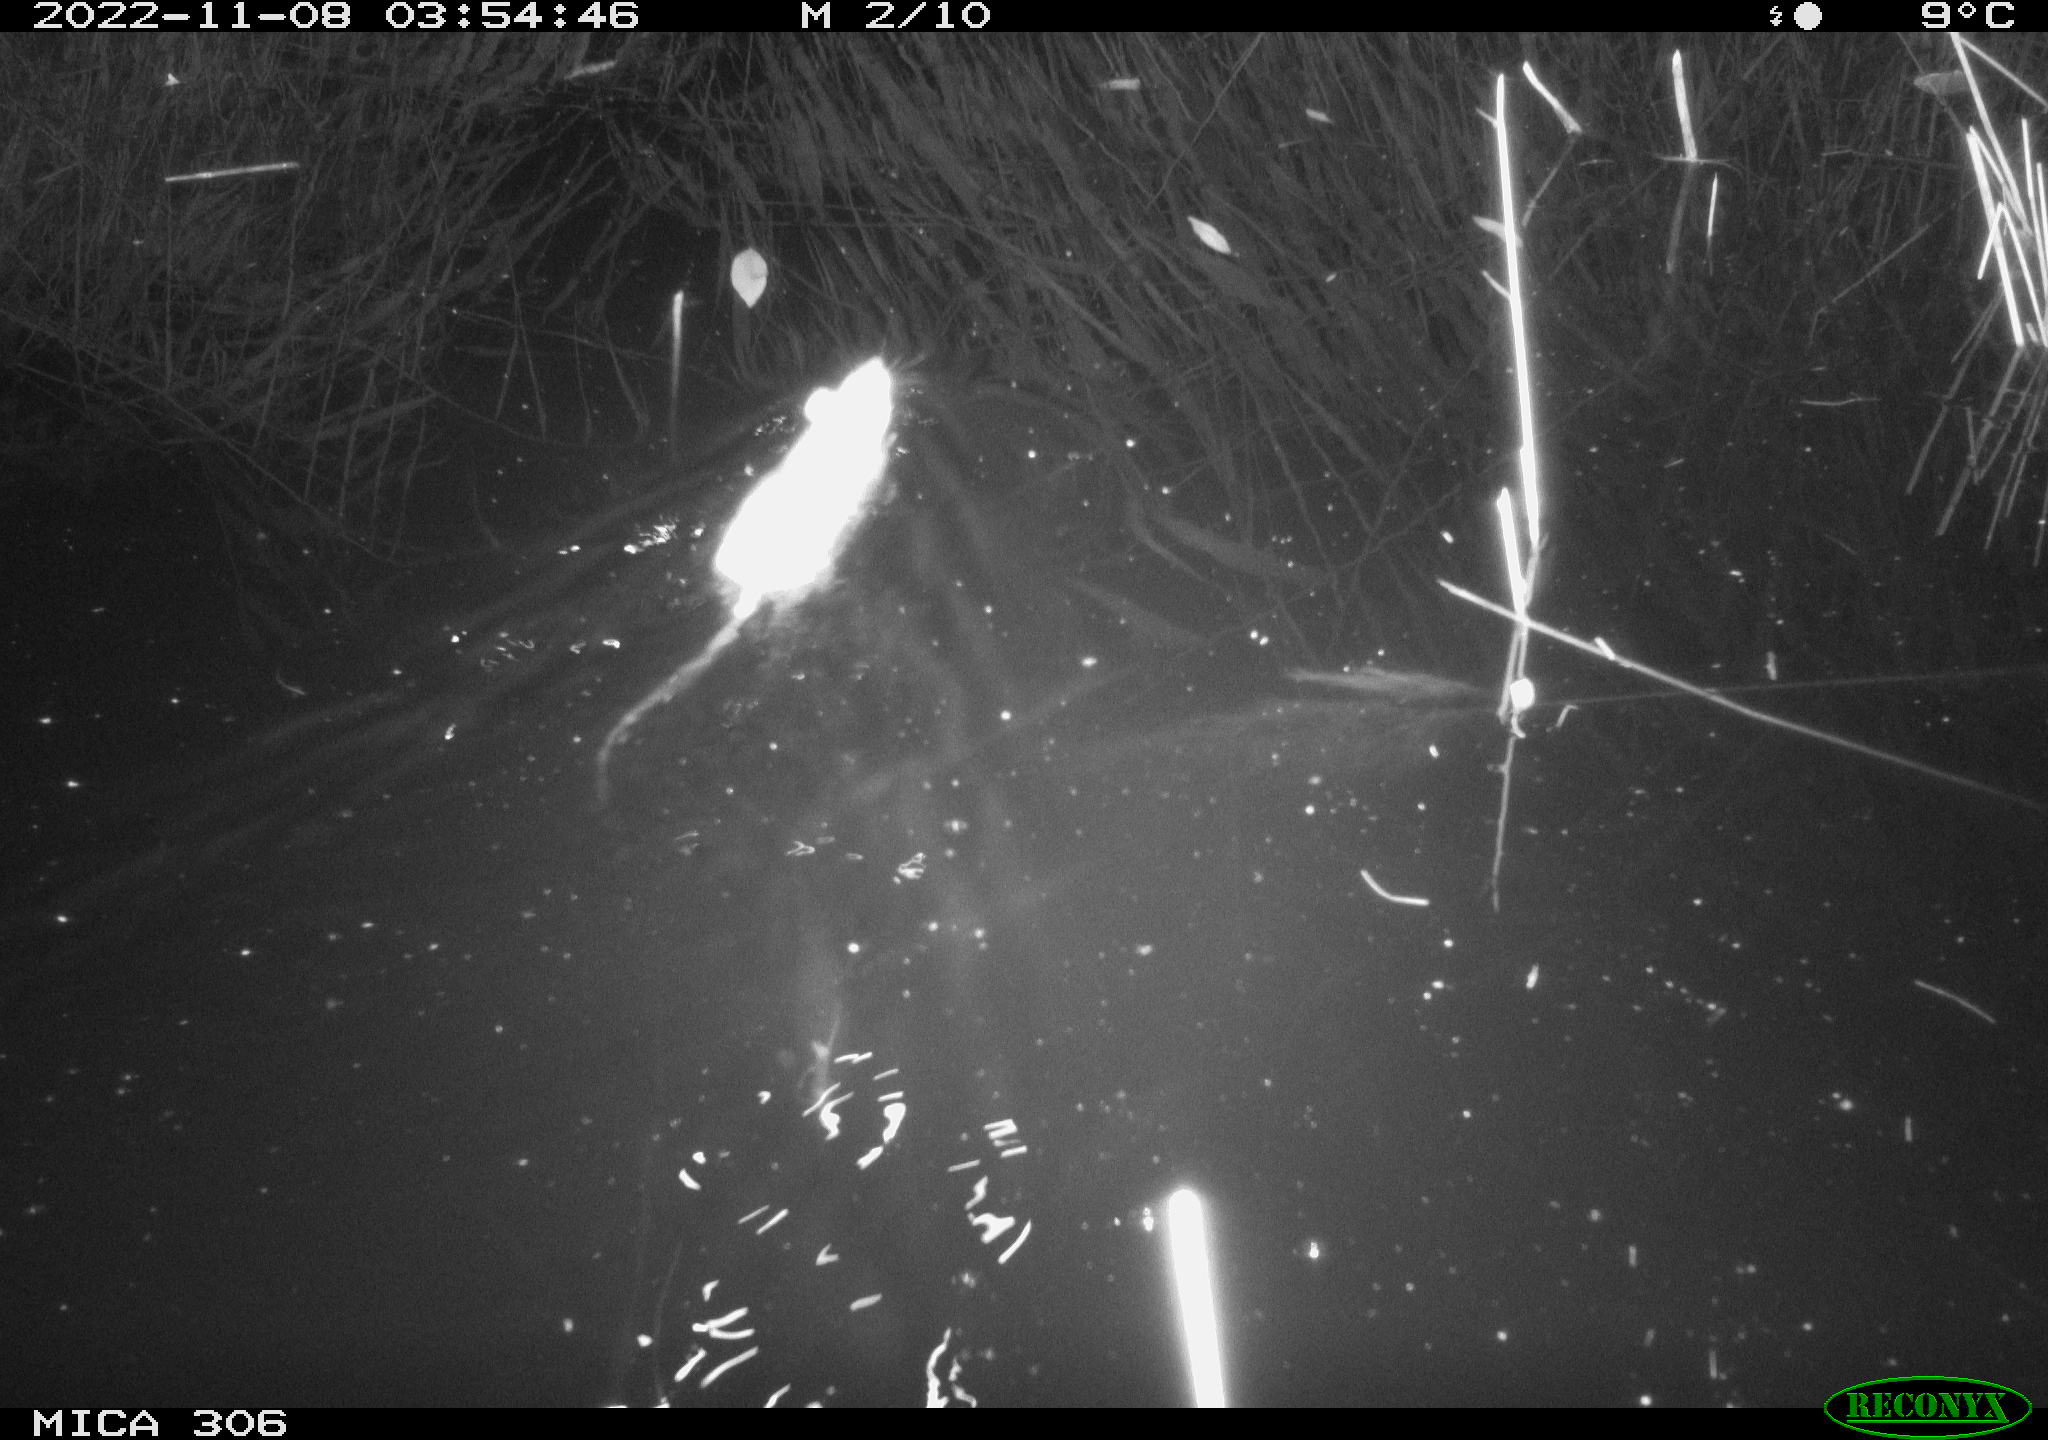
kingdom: Animalia
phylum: Chordata
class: Mammalia
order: Rodentia
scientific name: Rodentia
